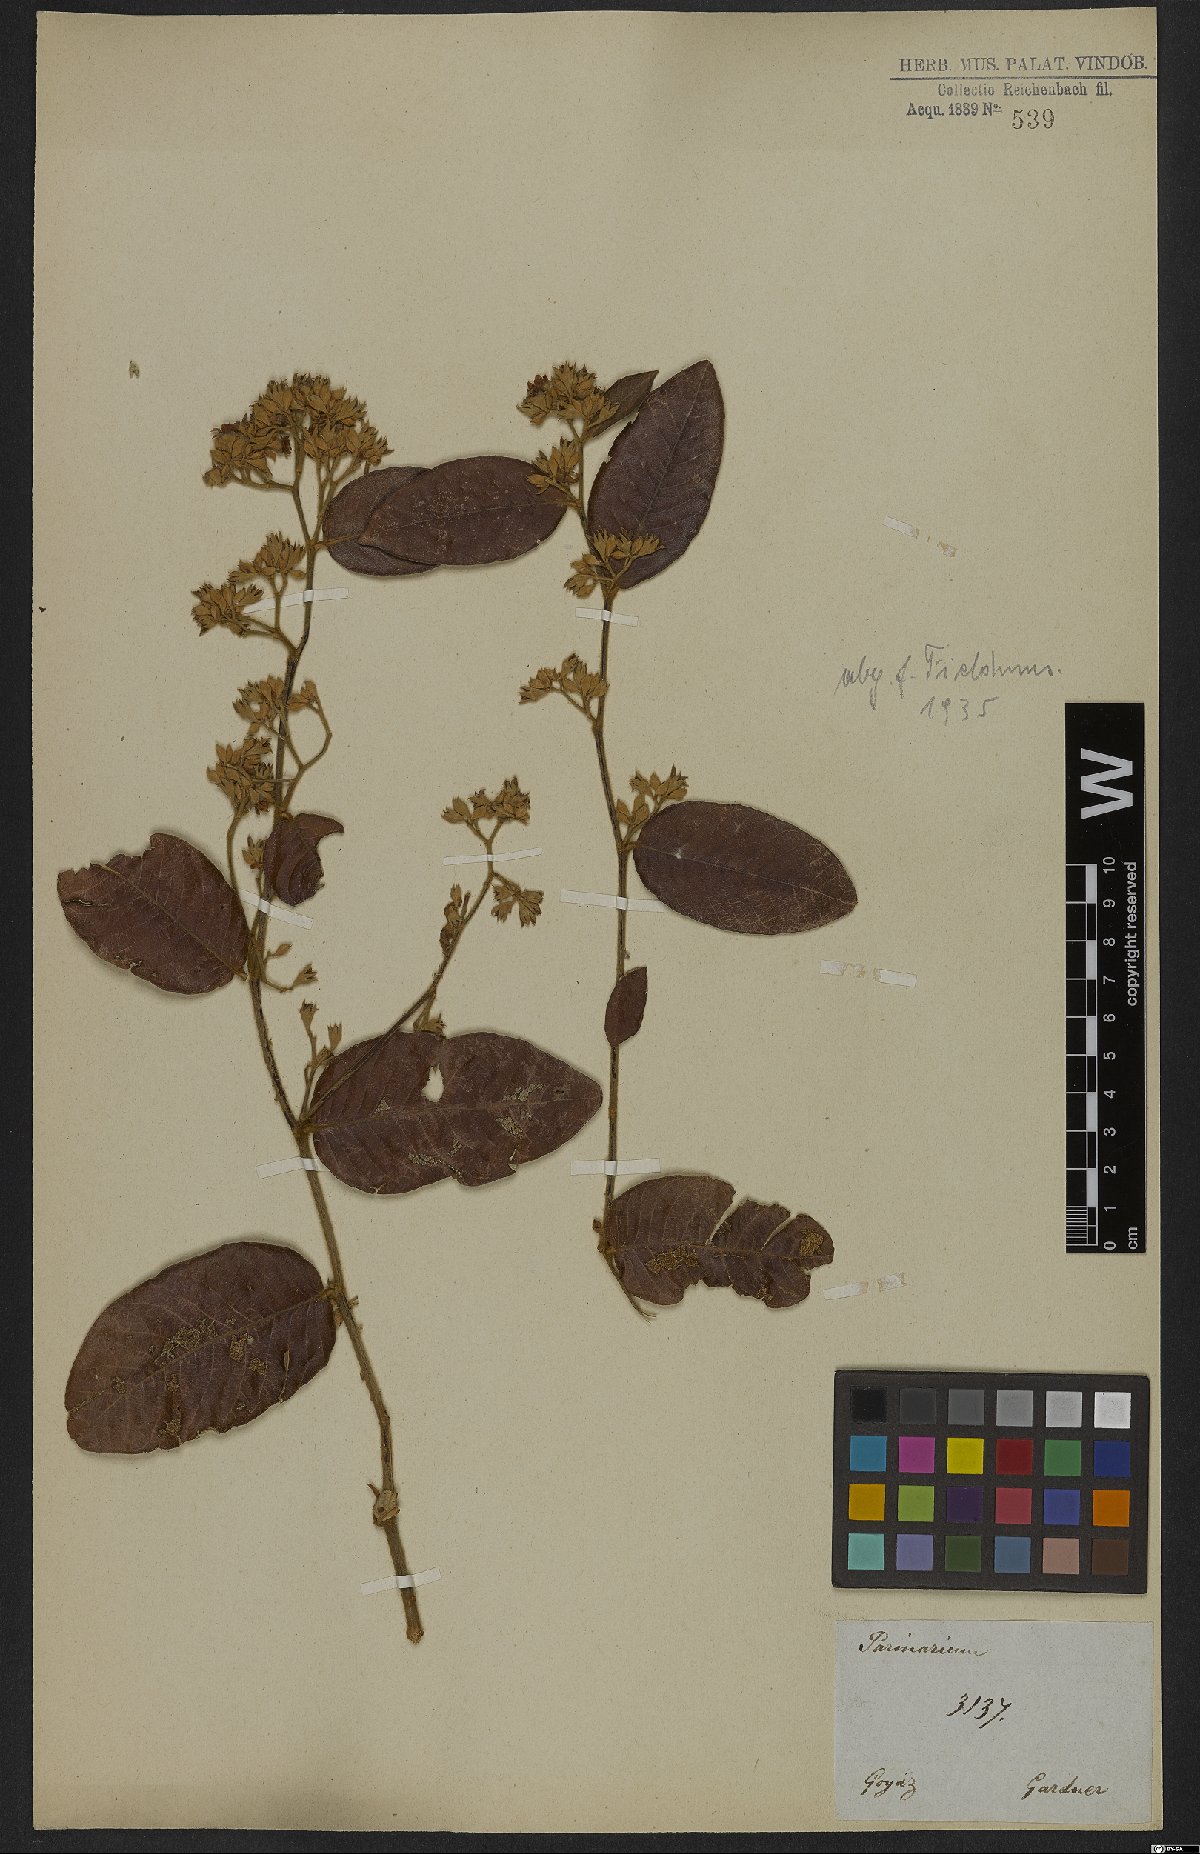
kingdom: Plantae
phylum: Tracheophyta
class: Magnoliopsida
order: Malpighiales
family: Chrysobalanaceae
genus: Parinari
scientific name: Parinari obtusifolium
